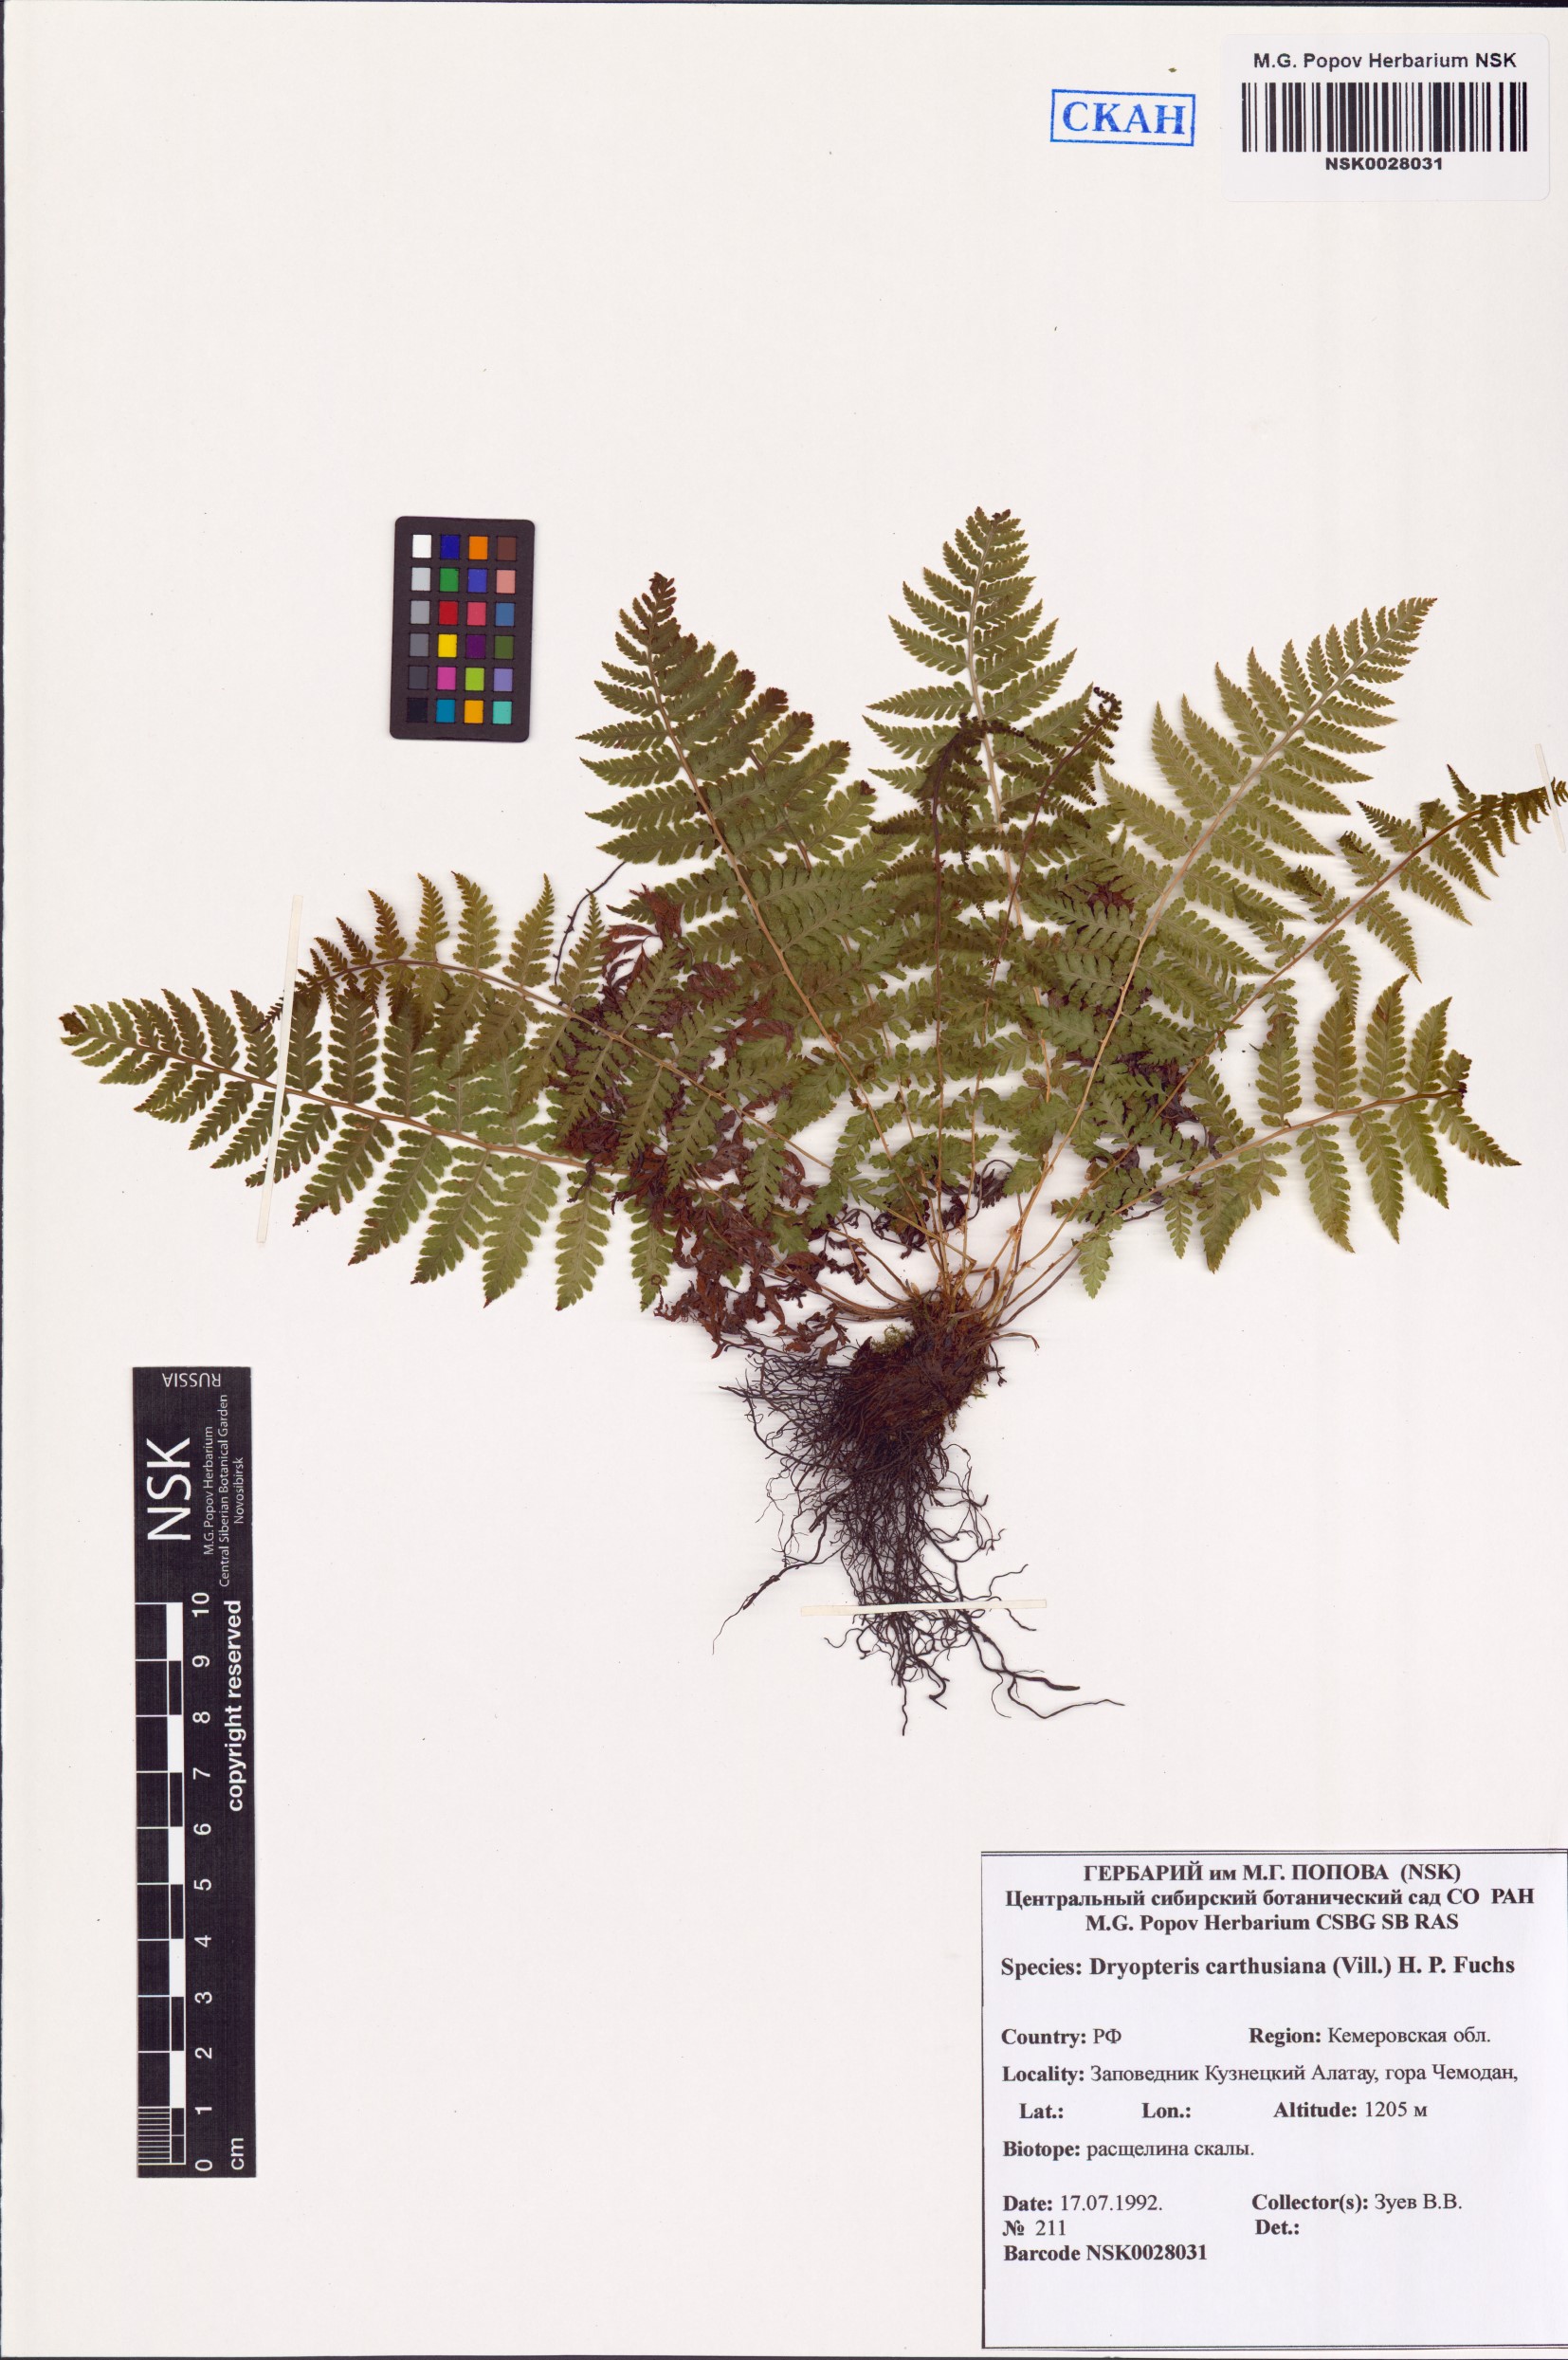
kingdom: Plantae
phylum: Tracheophyta
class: Polypodiopsida
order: Polypodiales
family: Dryopteridaceae
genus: Dryopteris
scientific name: Dryopteris carthusiana
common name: Narrow buckler-fern
